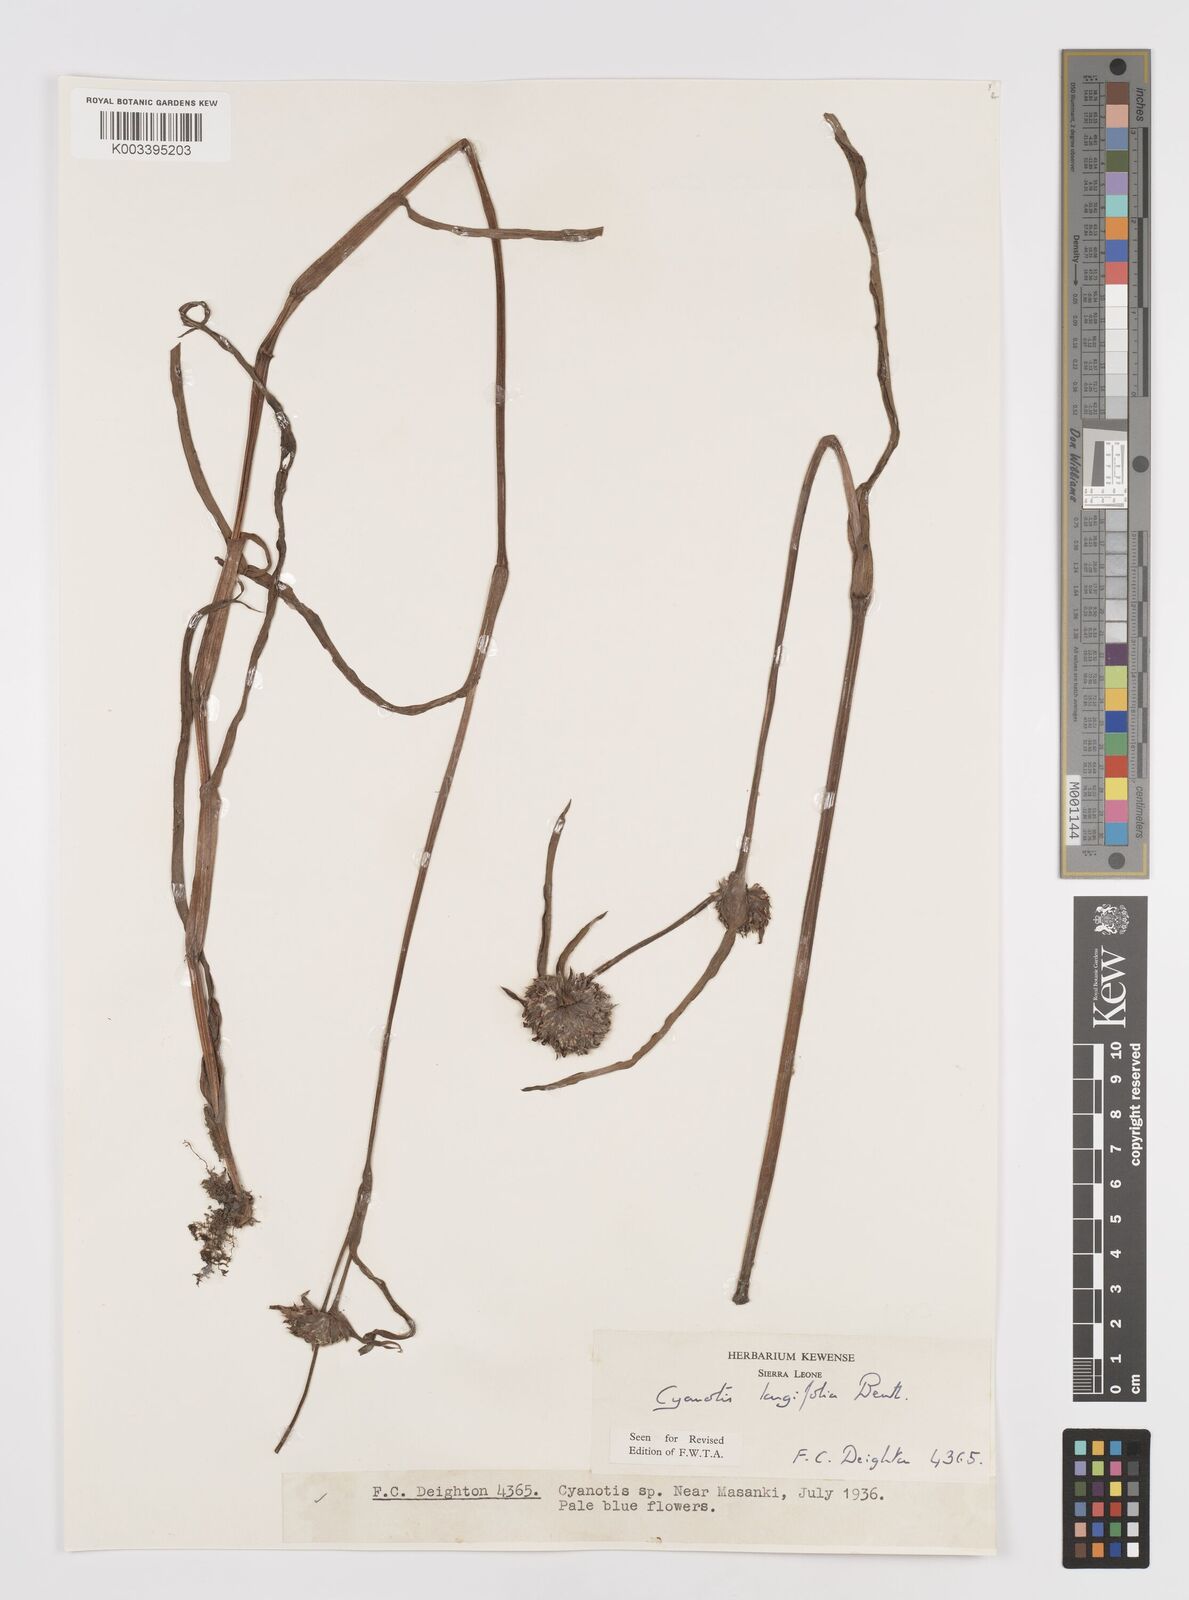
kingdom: Plantae
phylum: Tracheophyta
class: Liliopsida
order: Commelinales
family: Commelinaceae
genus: Cyanotis
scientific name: Cyanotis
